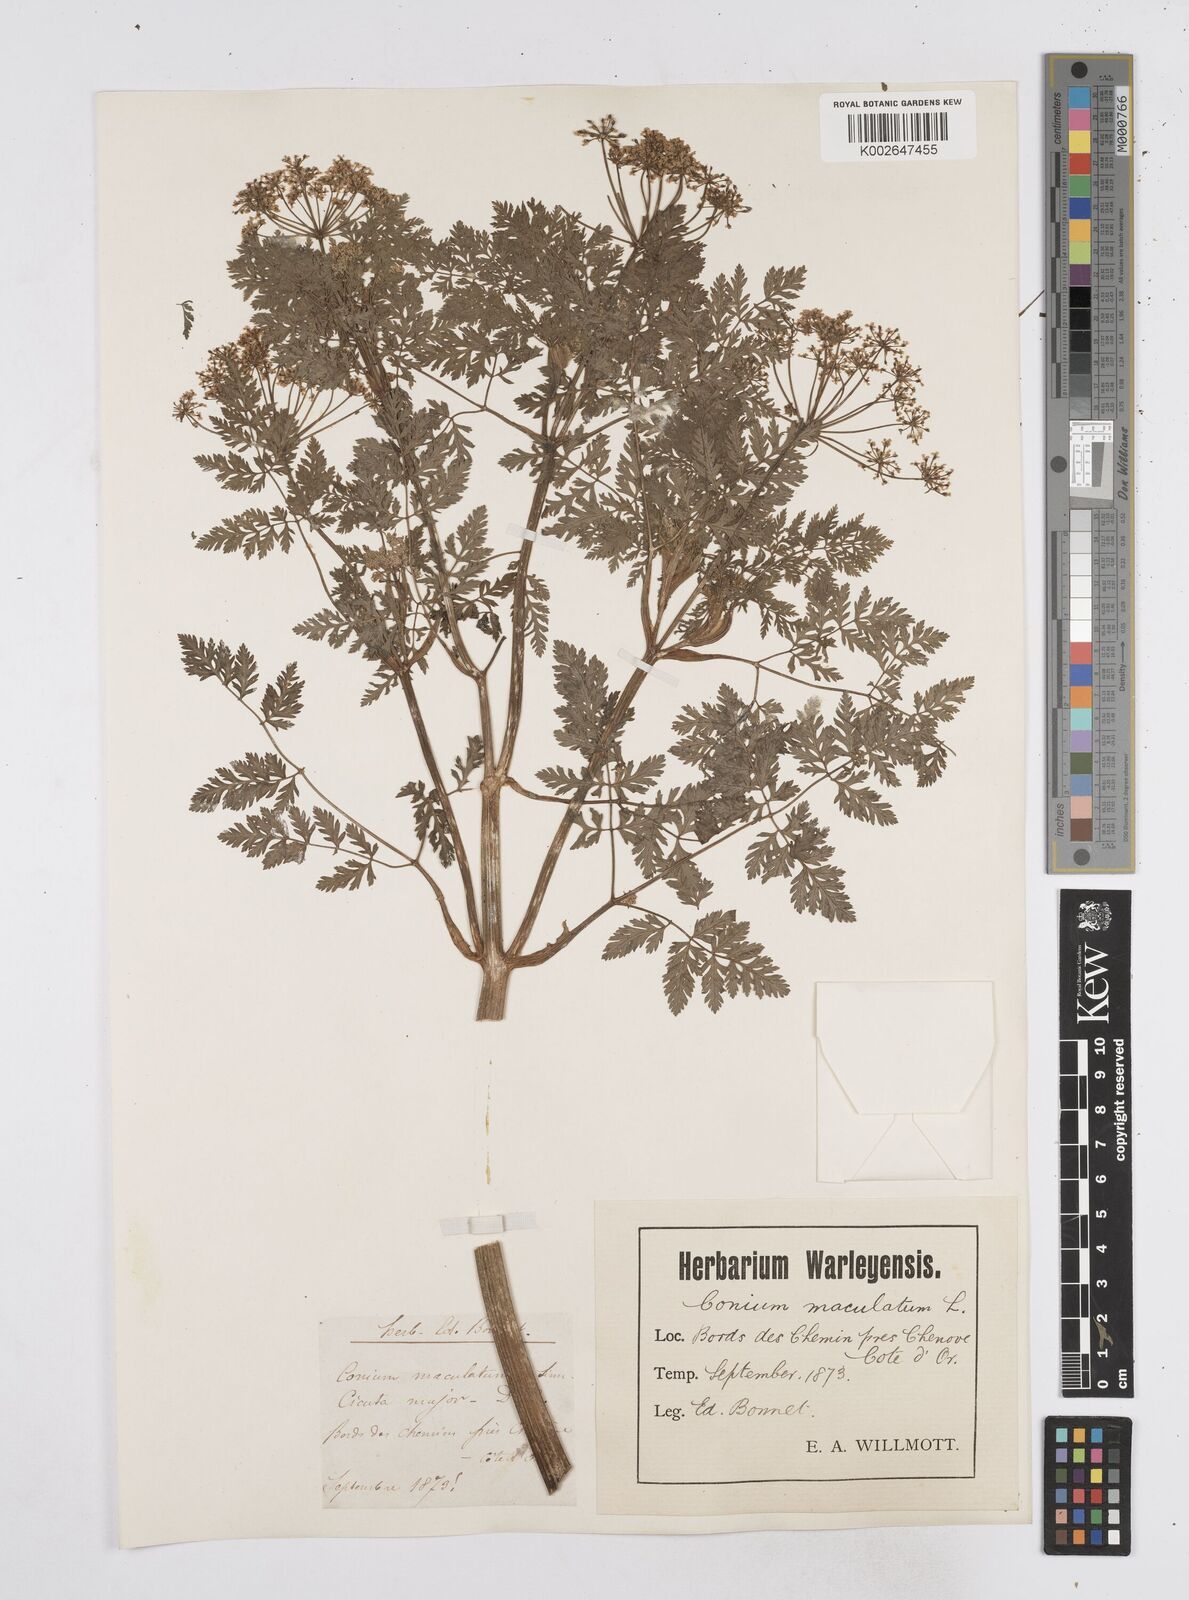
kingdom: Plantae
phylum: Tracheophyta
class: Magnoliopsida
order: Apiales
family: Apiaceae
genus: Conium
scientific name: Conium maculatum
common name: Hemlock
